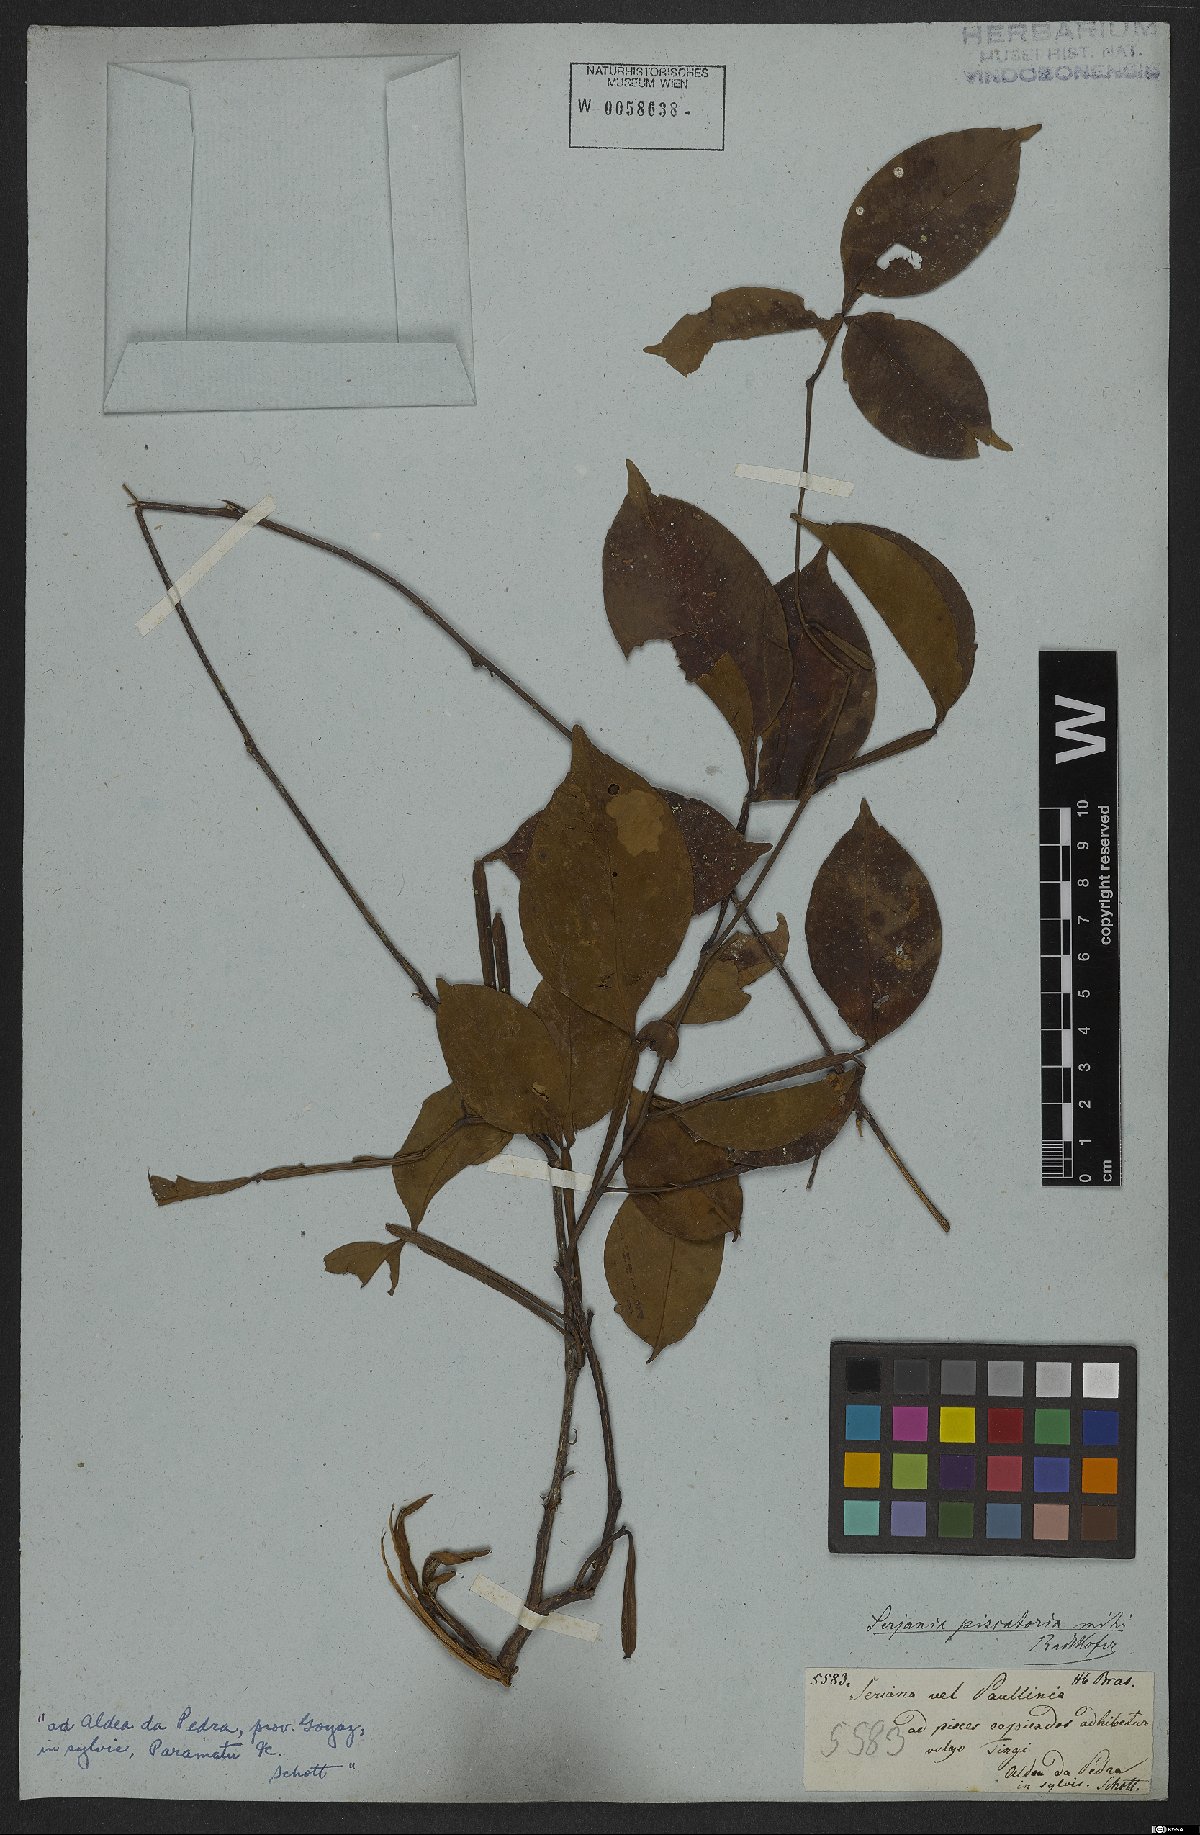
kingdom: Plantae
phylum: Tracheophyta
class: Magnoliopsida
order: Sapindales
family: Sapindaceae
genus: Serjania
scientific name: Serjania piscatoria
